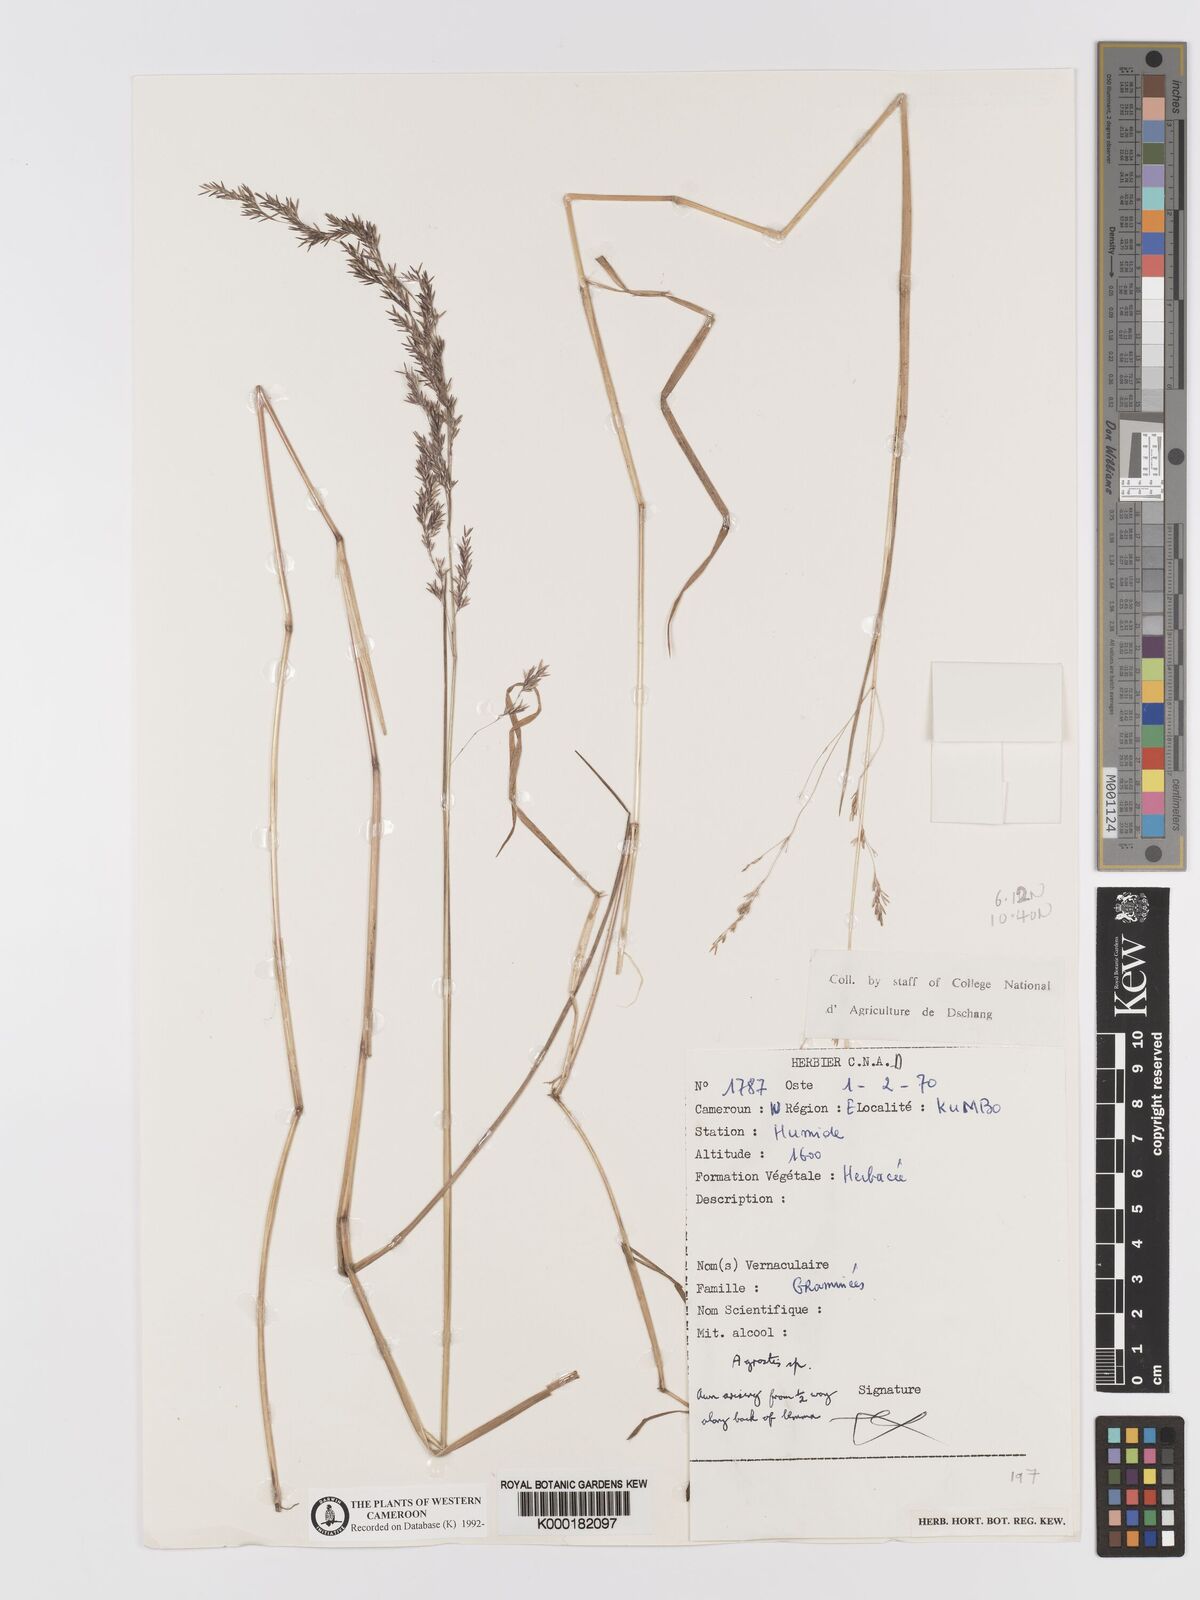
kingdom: Plantae
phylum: Tracheophyta
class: Liliopsida
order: Poales
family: Poaceae
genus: Agrostis
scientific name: Agrostis
